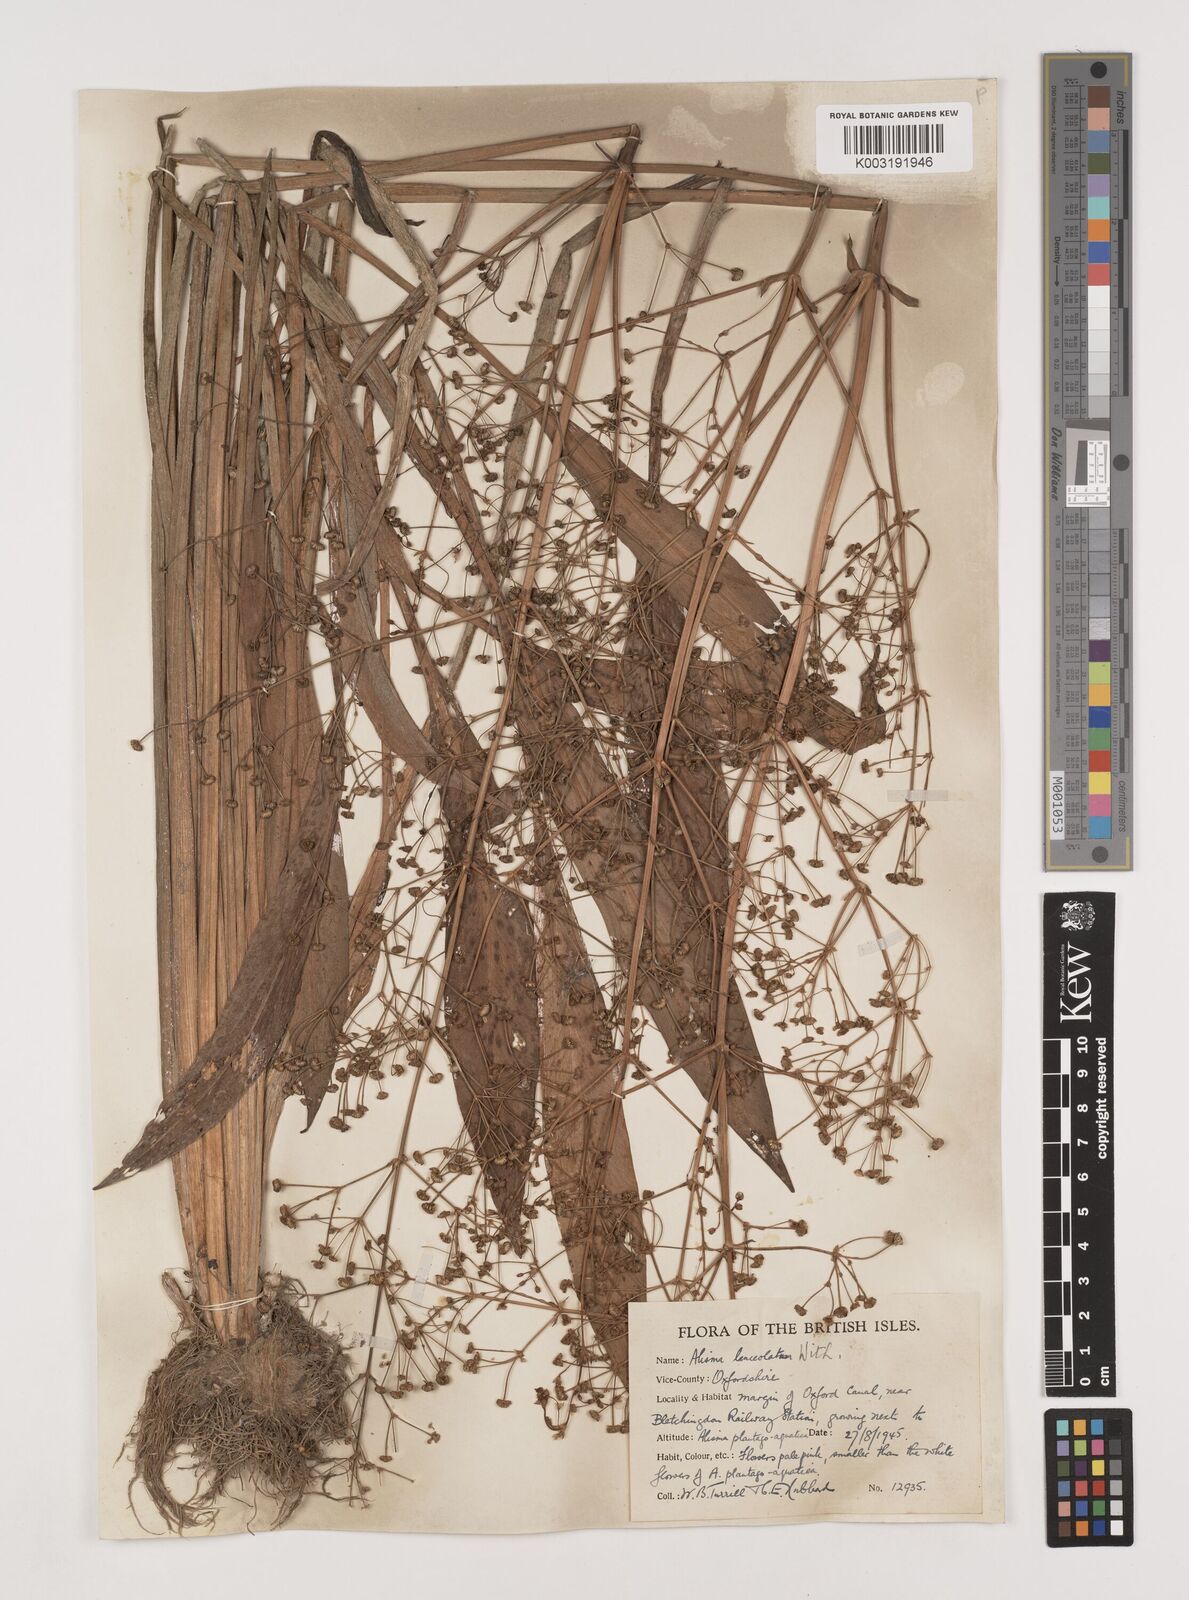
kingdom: Plantae
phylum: Tracheophyta
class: Liliopsida
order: Alismatales
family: Alismataceae
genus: Alisma
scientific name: Alisma lanceolatum
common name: Narrow-leaved water-plantain
